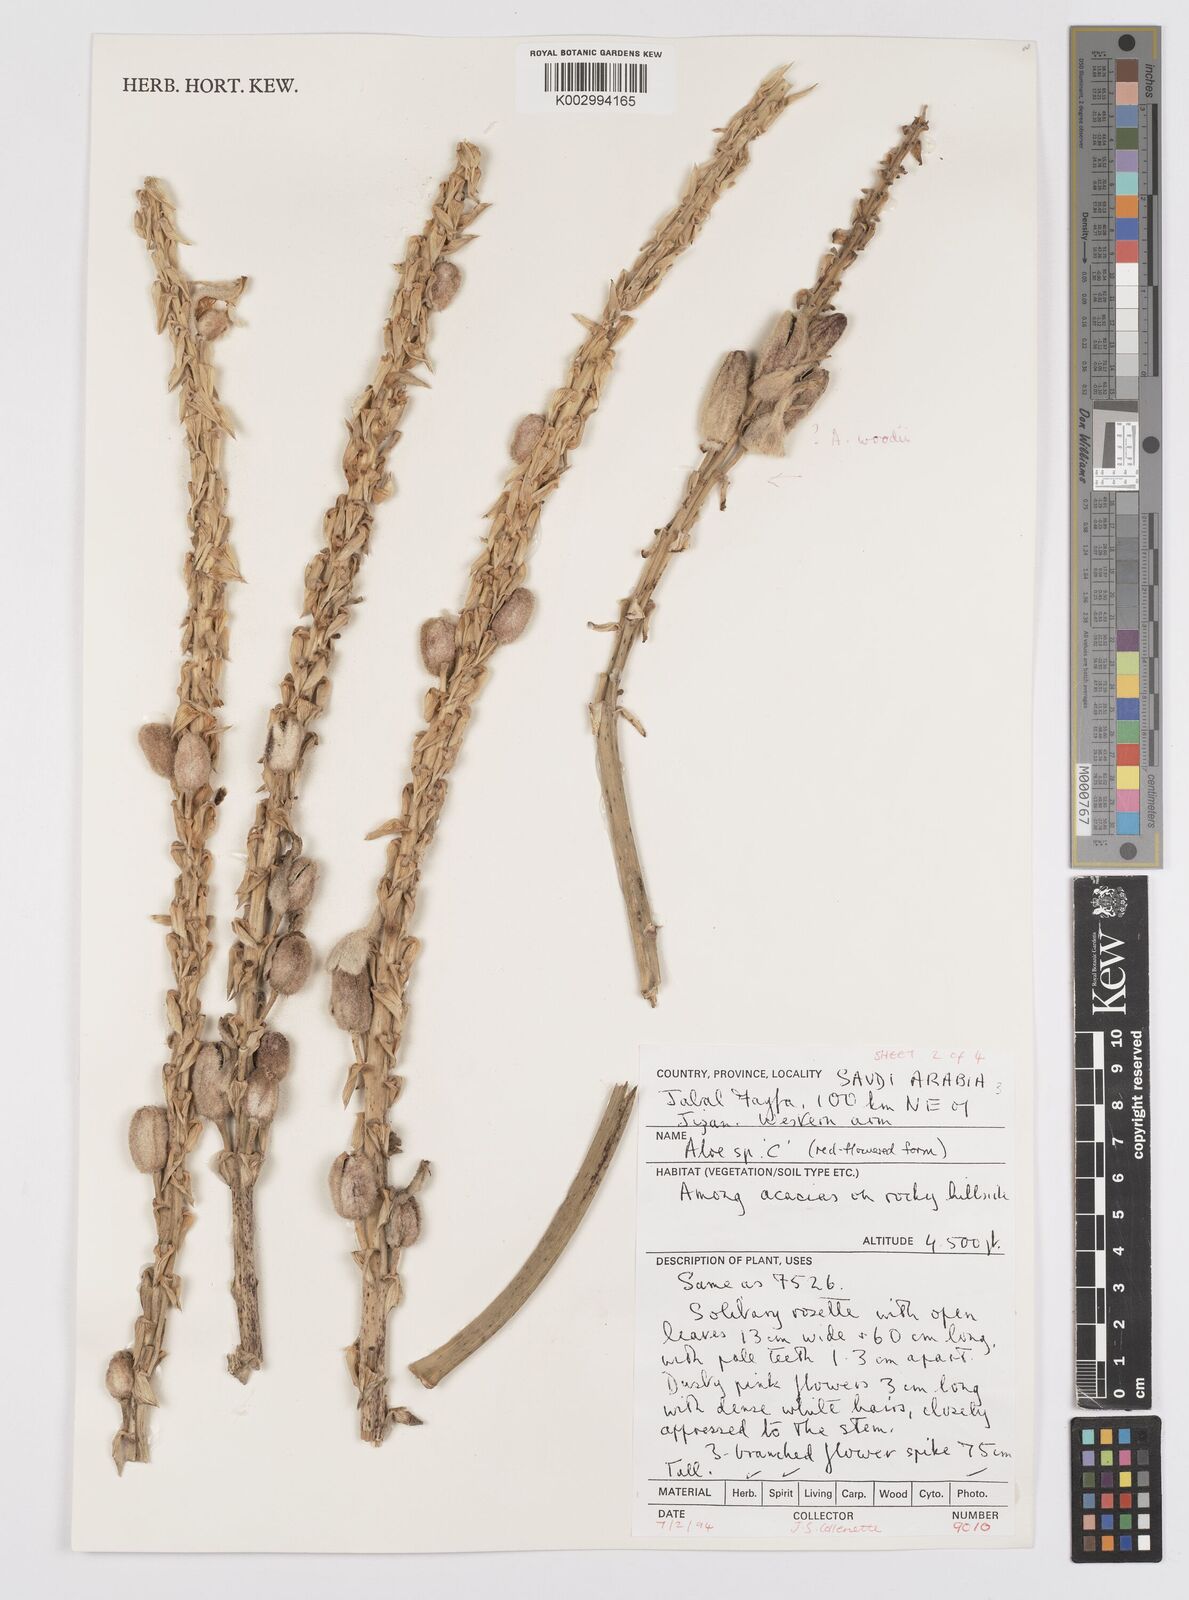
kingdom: Plantae
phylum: Tracheophyta
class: Liliopsida
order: Asparagales
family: Asphodelaceae
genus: Aloe
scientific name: Aloe parvicapsula
